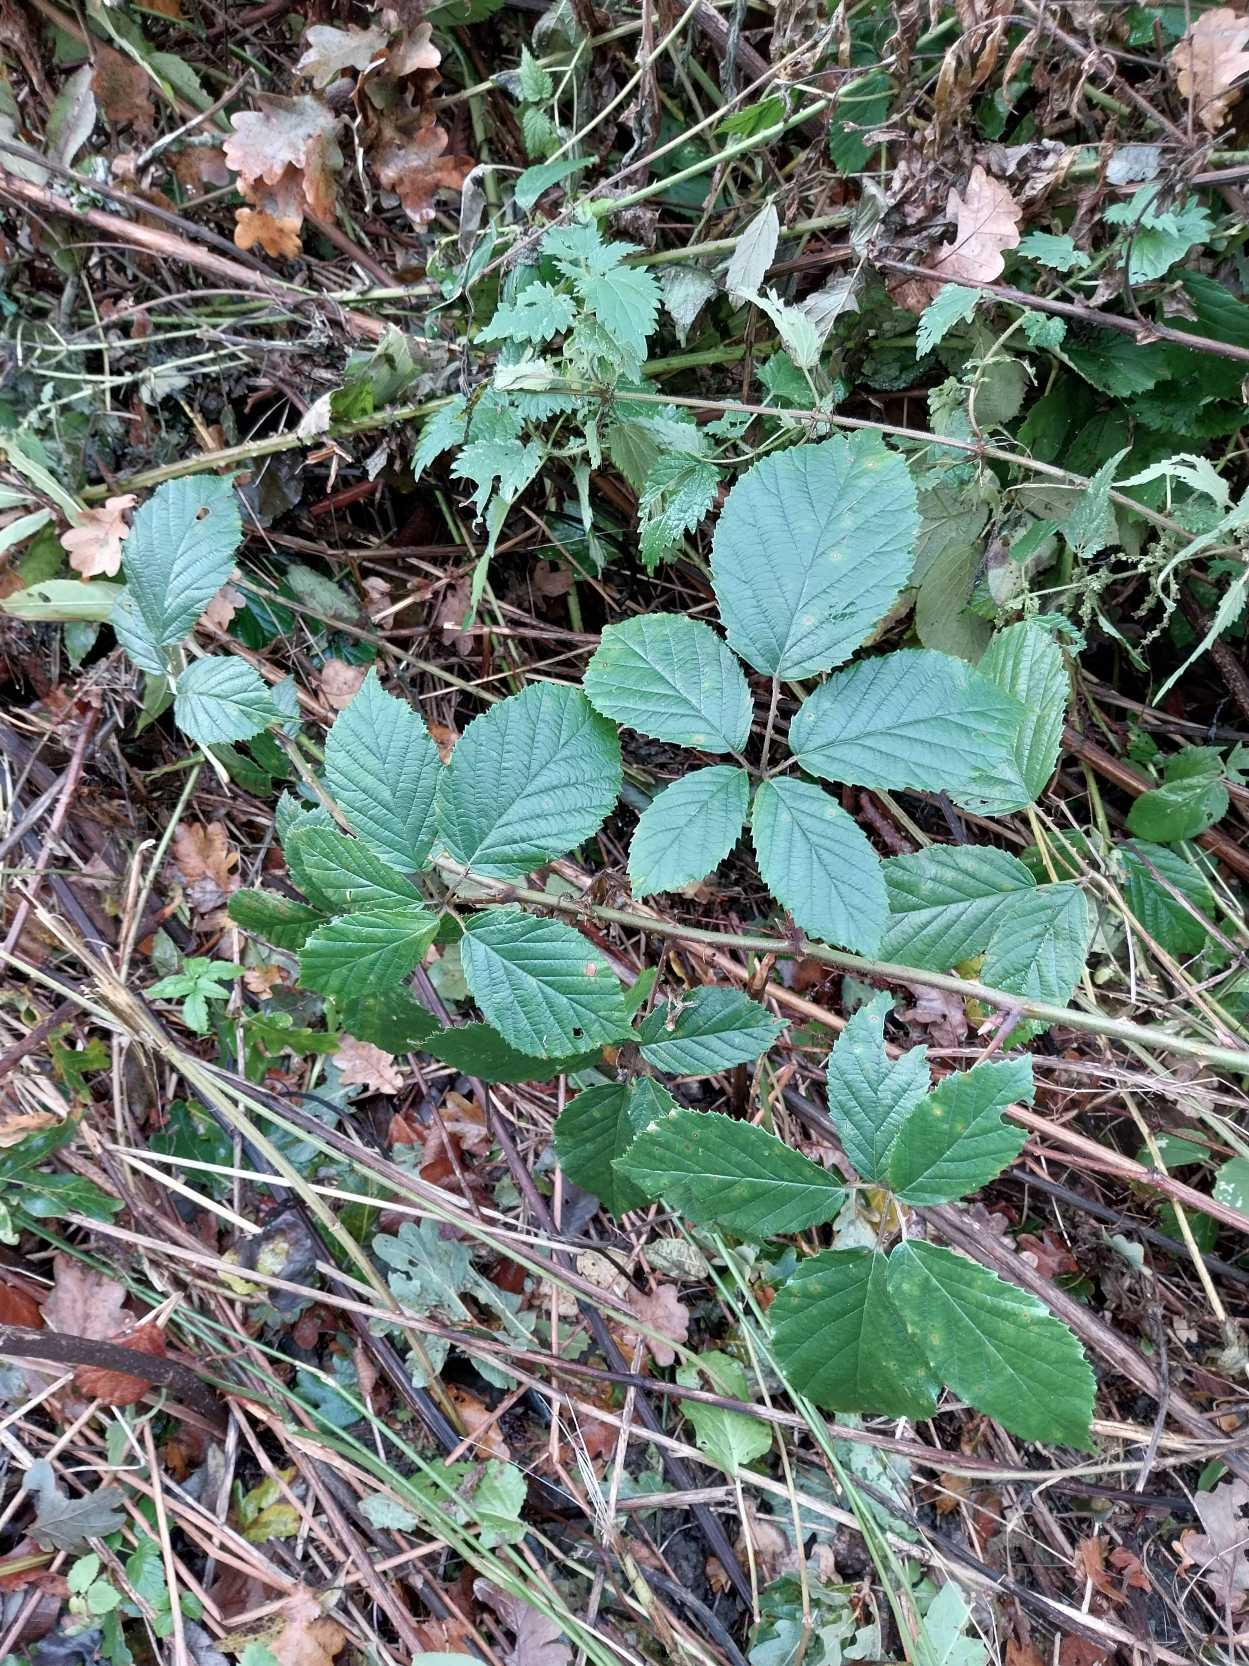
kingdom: Plantae
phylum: Tracheophyta
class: Magnoliopsida
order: Rosales
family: Rosaceae
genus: Rubus
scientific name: Rubus radula
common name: Rasperu brombær
